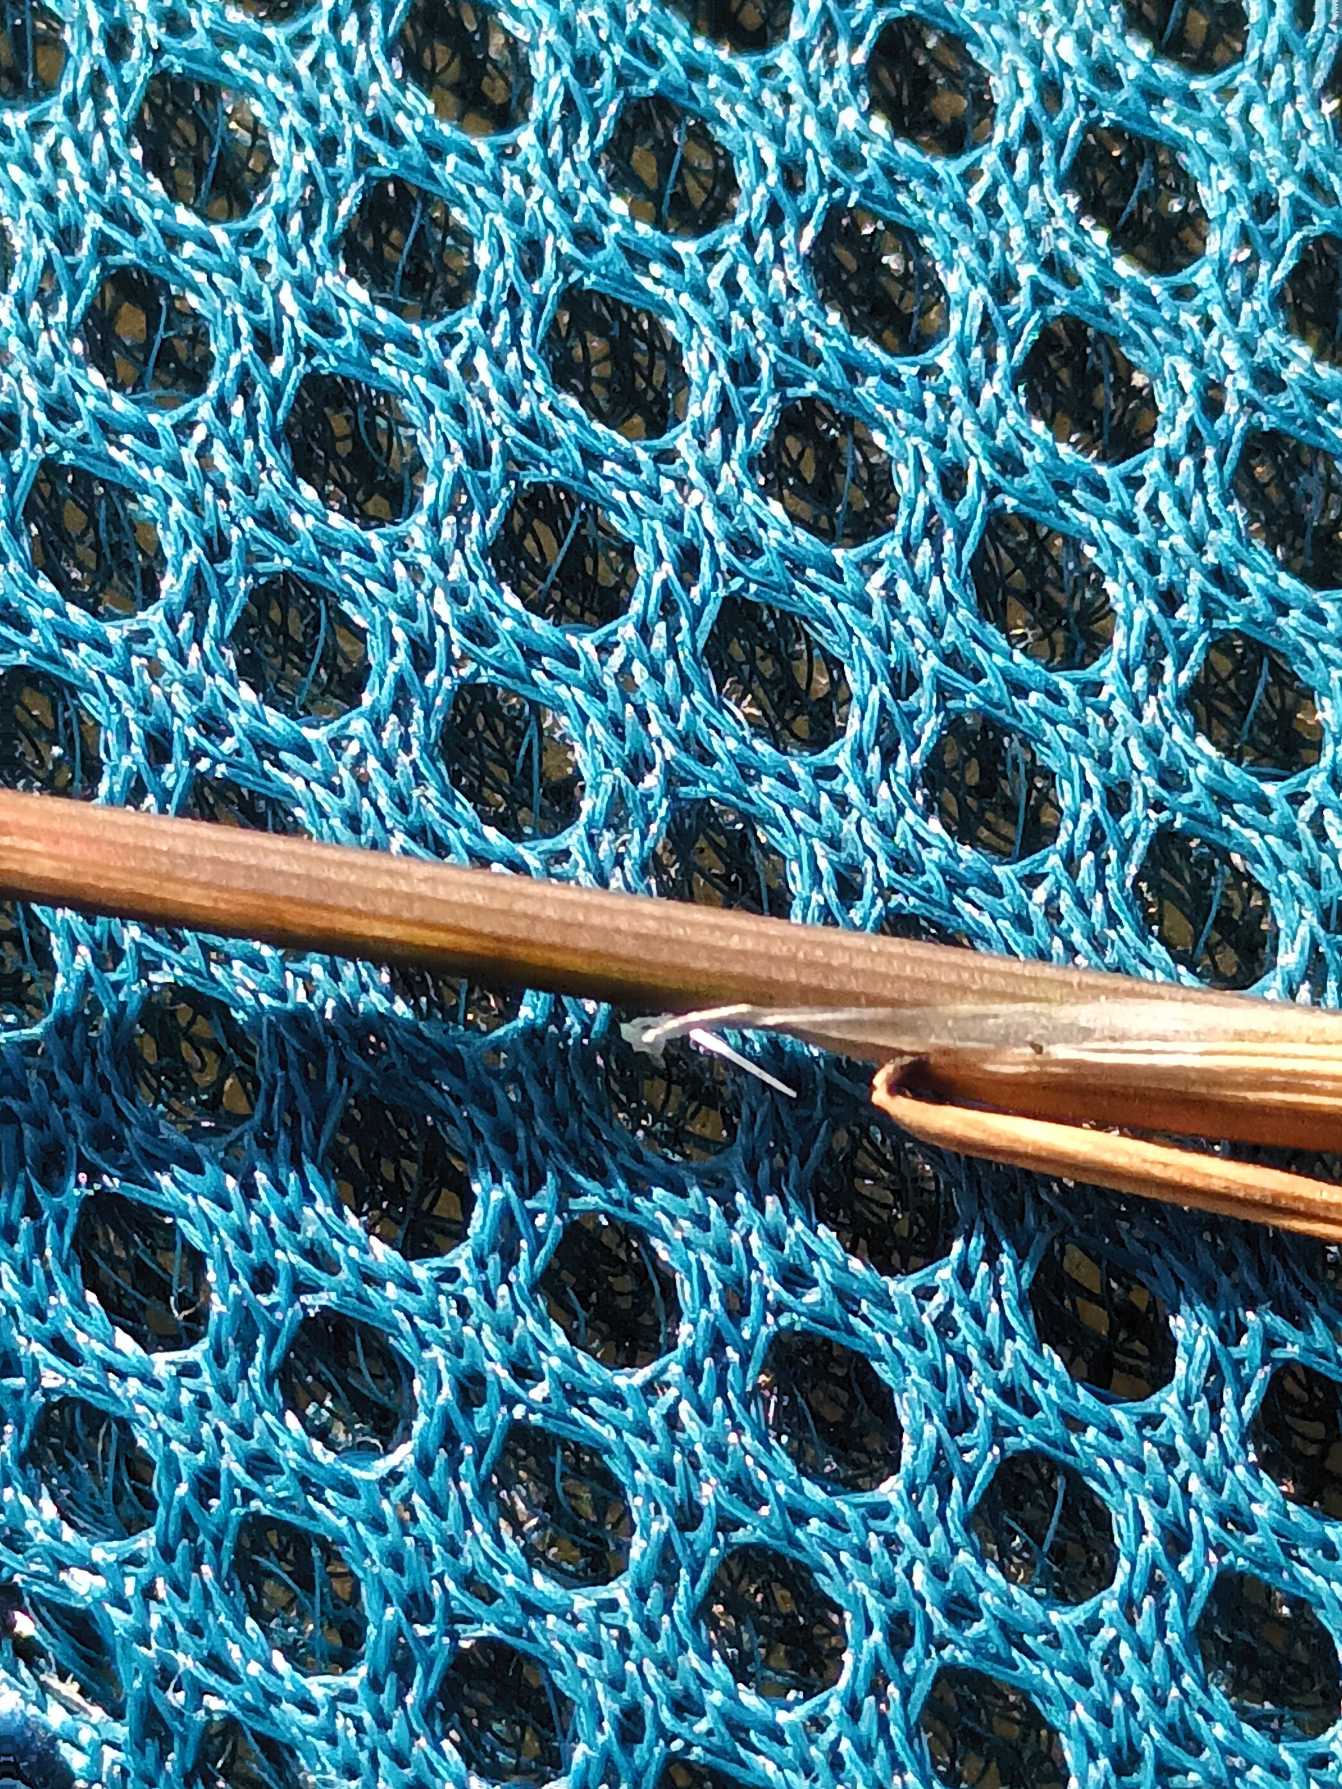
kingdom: Plantae
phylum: Tracheophyta
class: Liliopsida
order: Poales
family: Poaceae
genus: Deschampsia
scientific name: Deschampsia setacea
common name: Fin bunke
